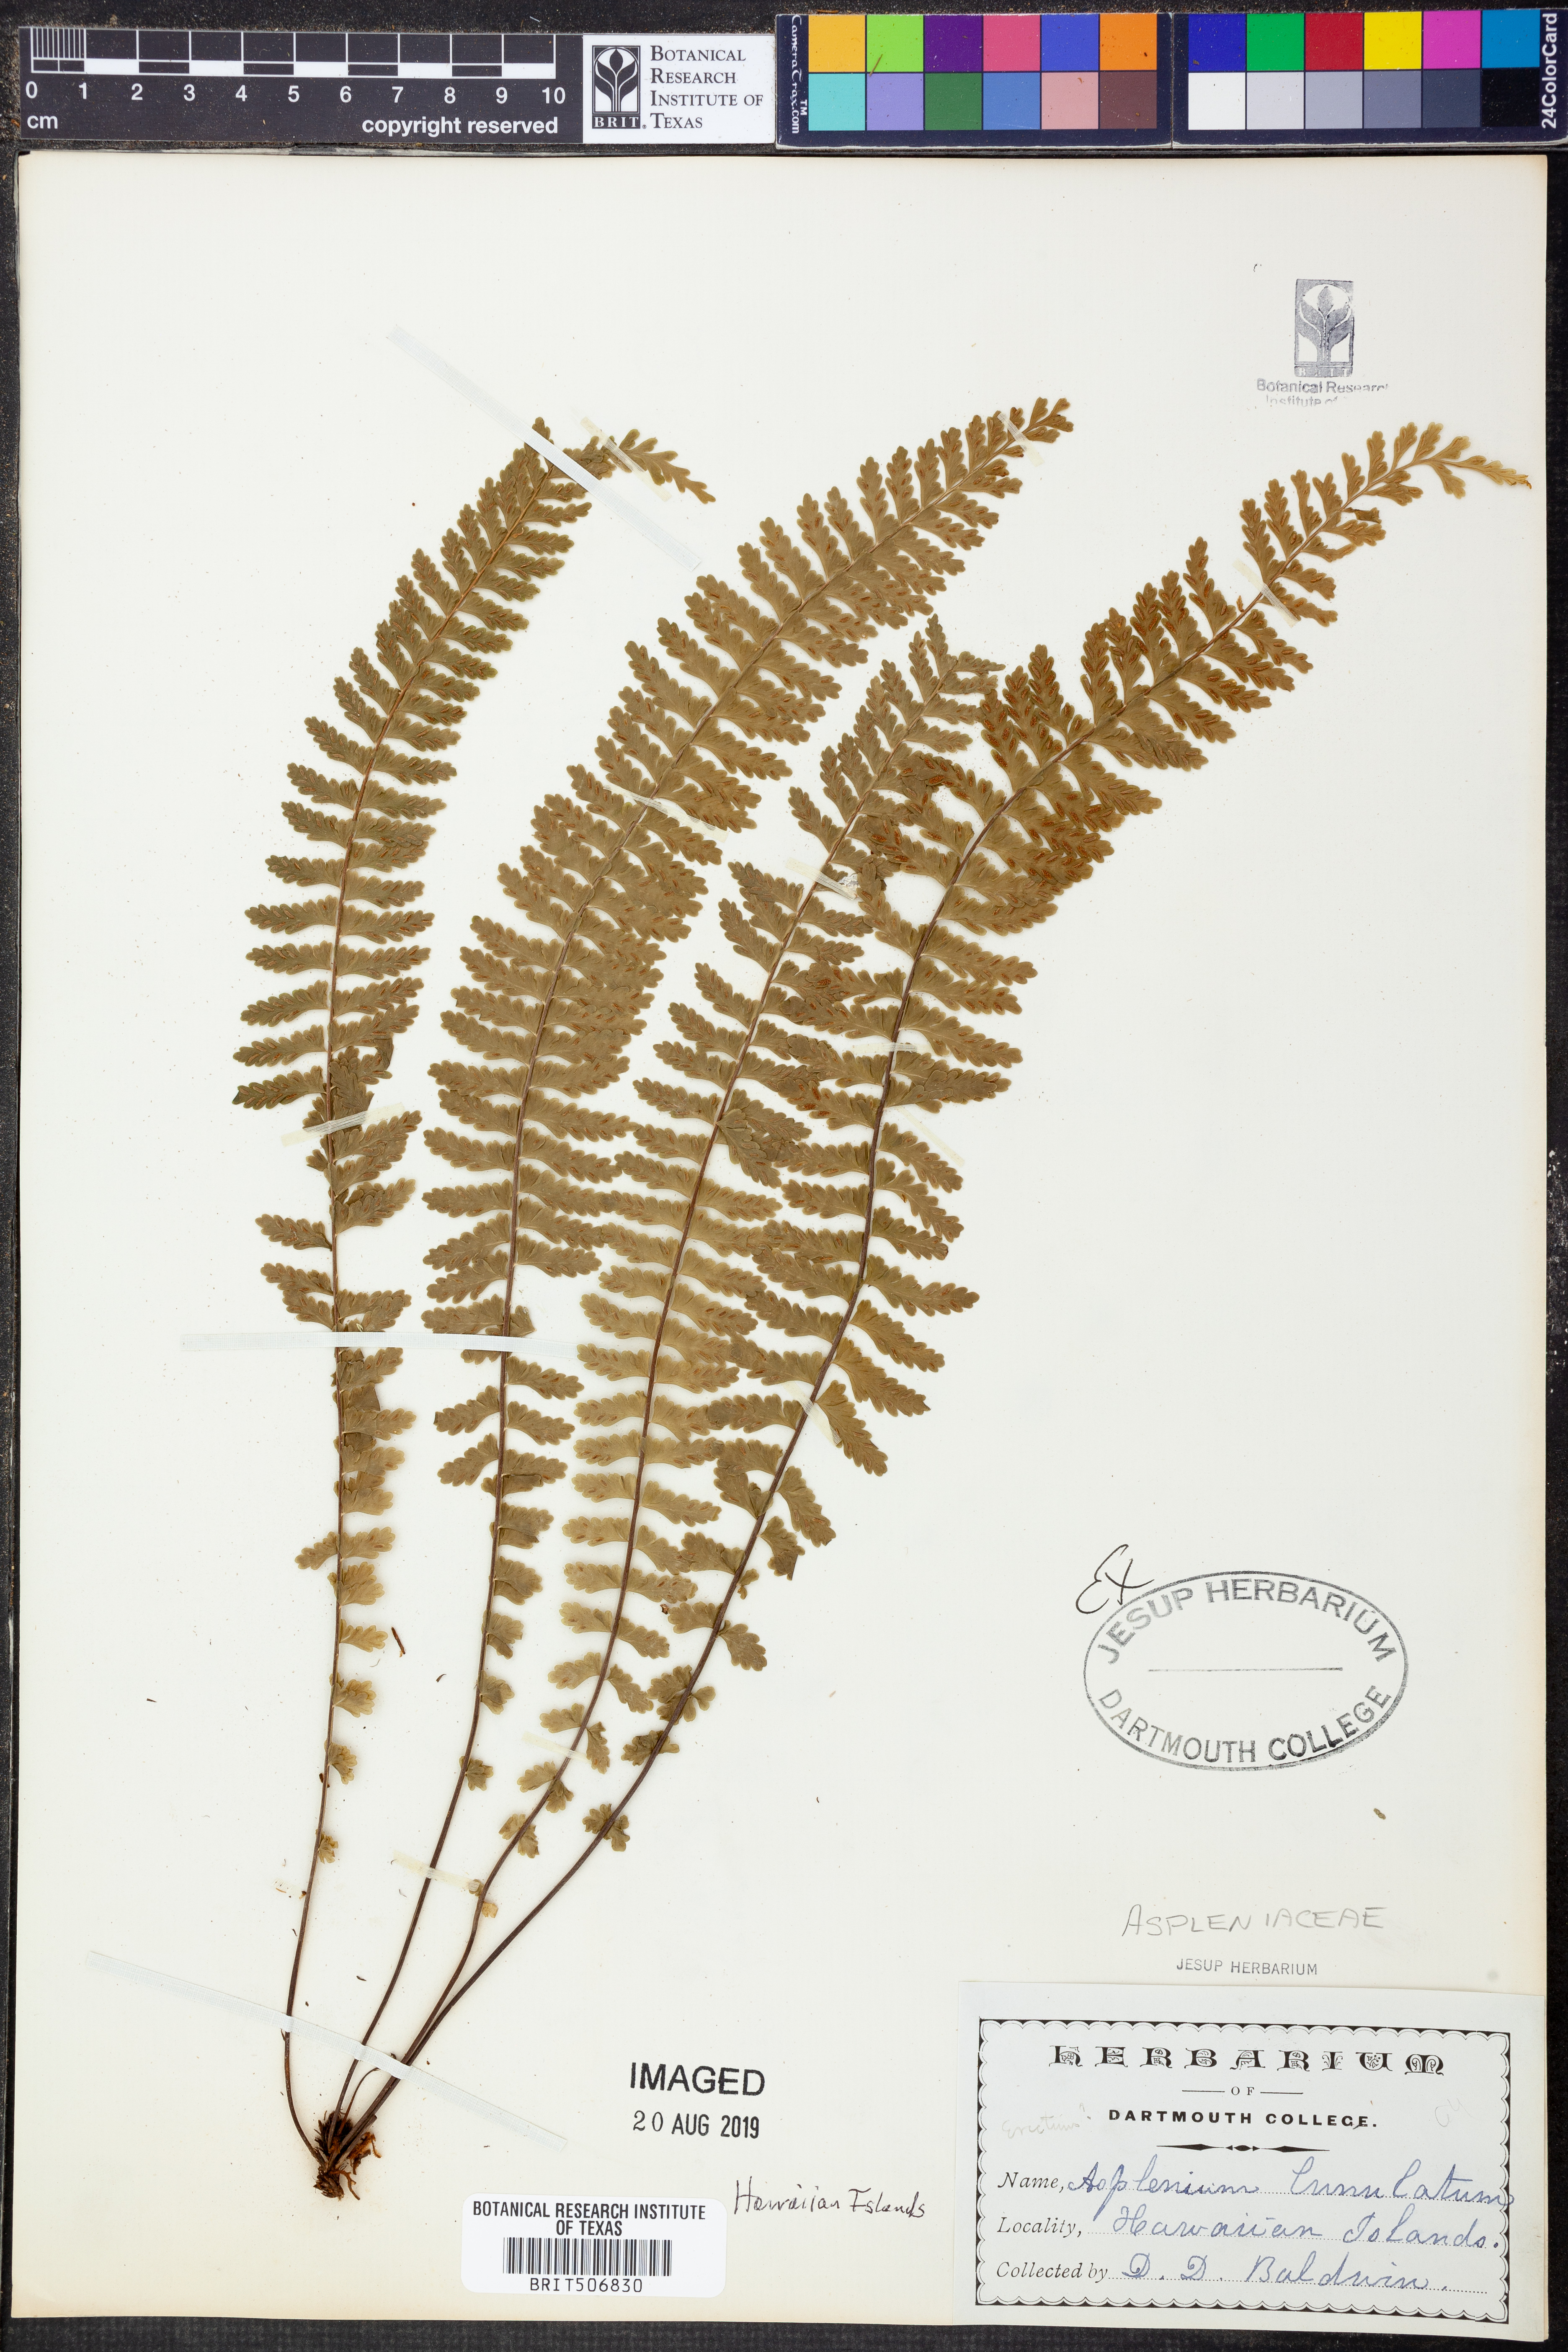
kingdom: Plantae
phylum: Tracheophyta
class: Polypodiopsida
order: Polypodiales
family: Aspleniaceae
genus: Asplenium
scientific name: Asplenium lunulatum
